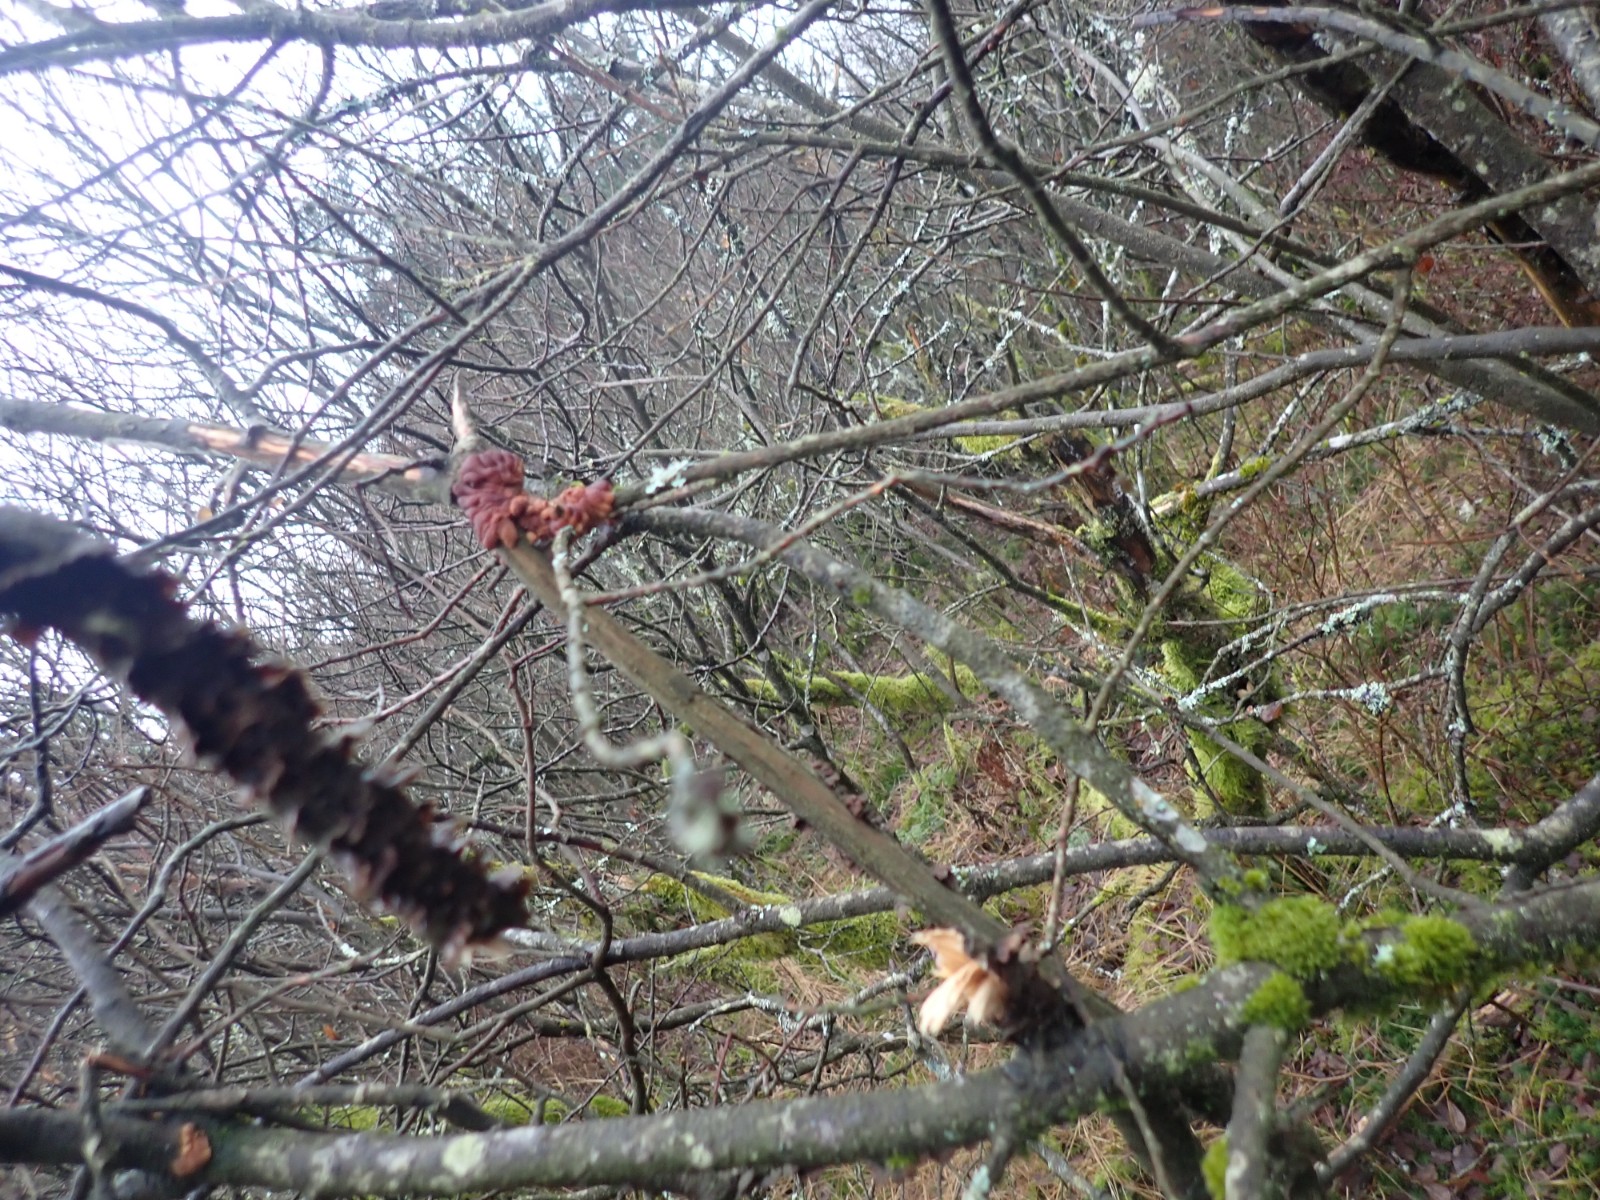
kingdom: Fungi
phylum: Ascomycota
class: Sordariomycetes
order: Hypocreales
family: Hypocreaceae
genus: Hypocreopsis
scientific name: Hypocreopsis lichenoides
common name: pilfinger
